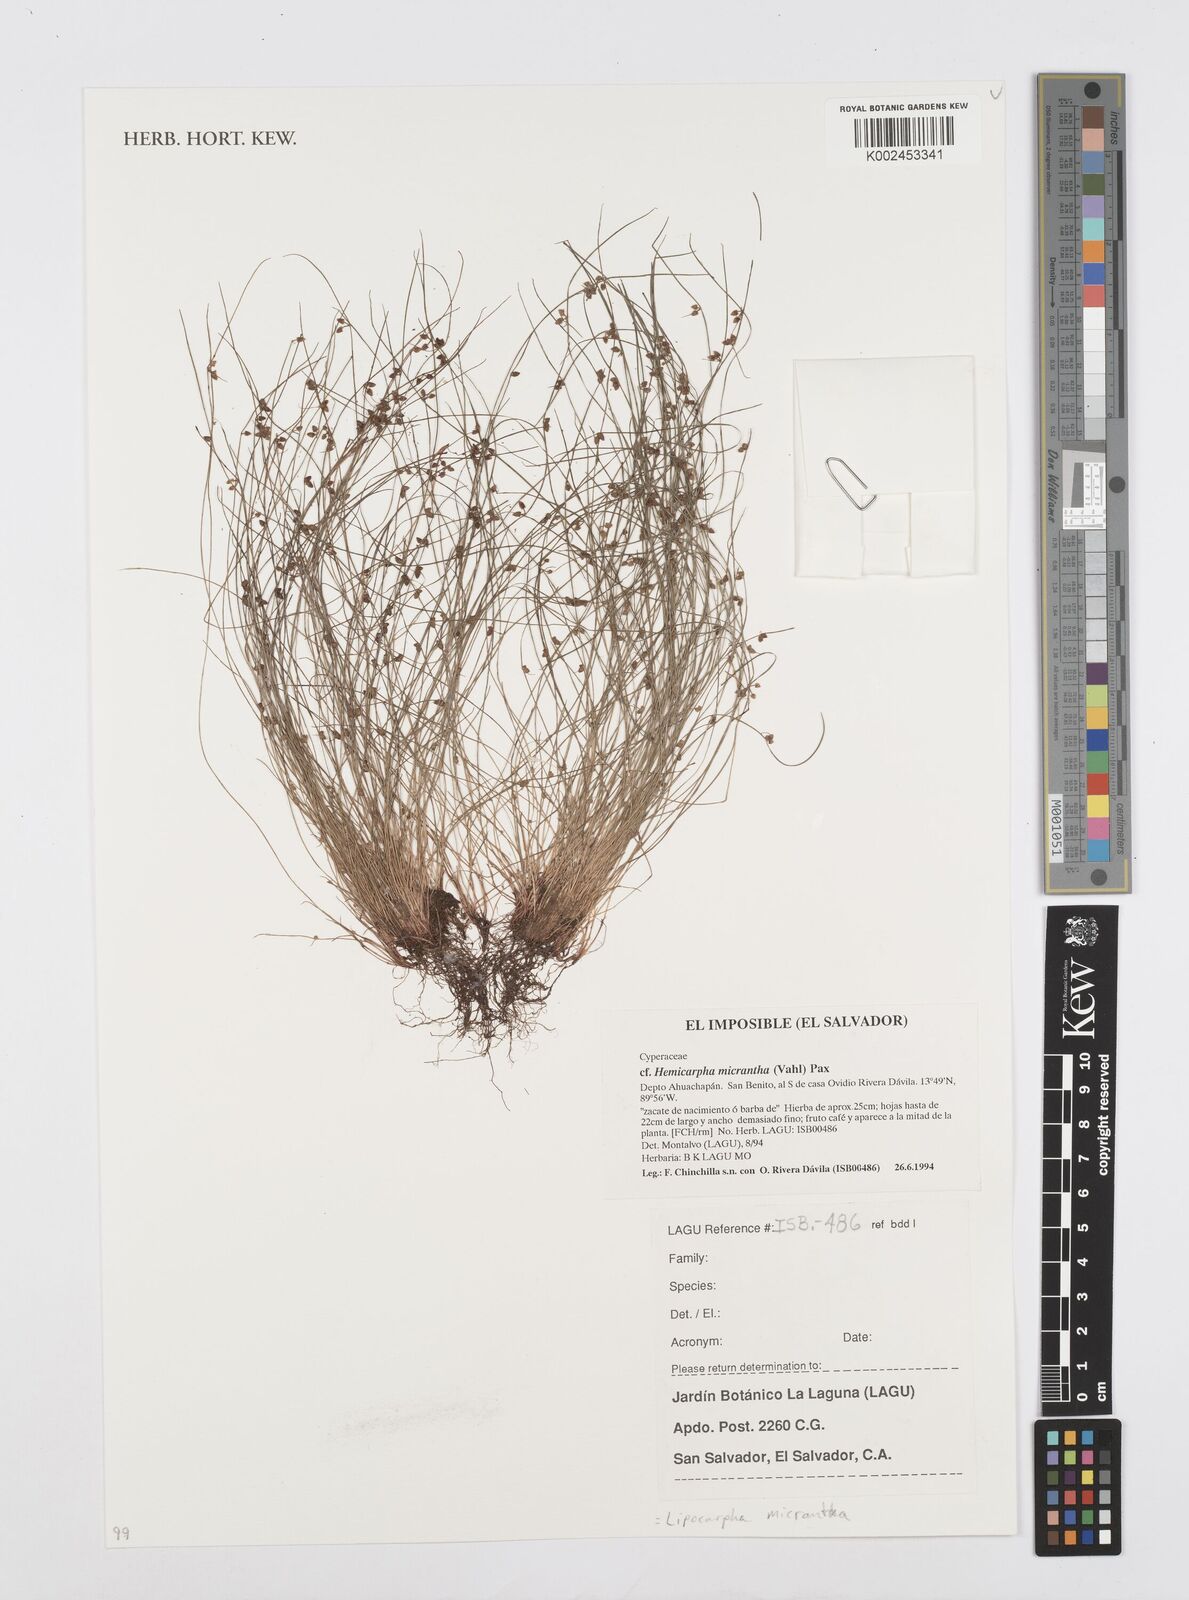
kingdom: Plantae
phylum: Tracheophyta
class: Liliopsida
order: Poales
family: Cyperaceae
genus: Cyperus
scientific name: Cyperus
